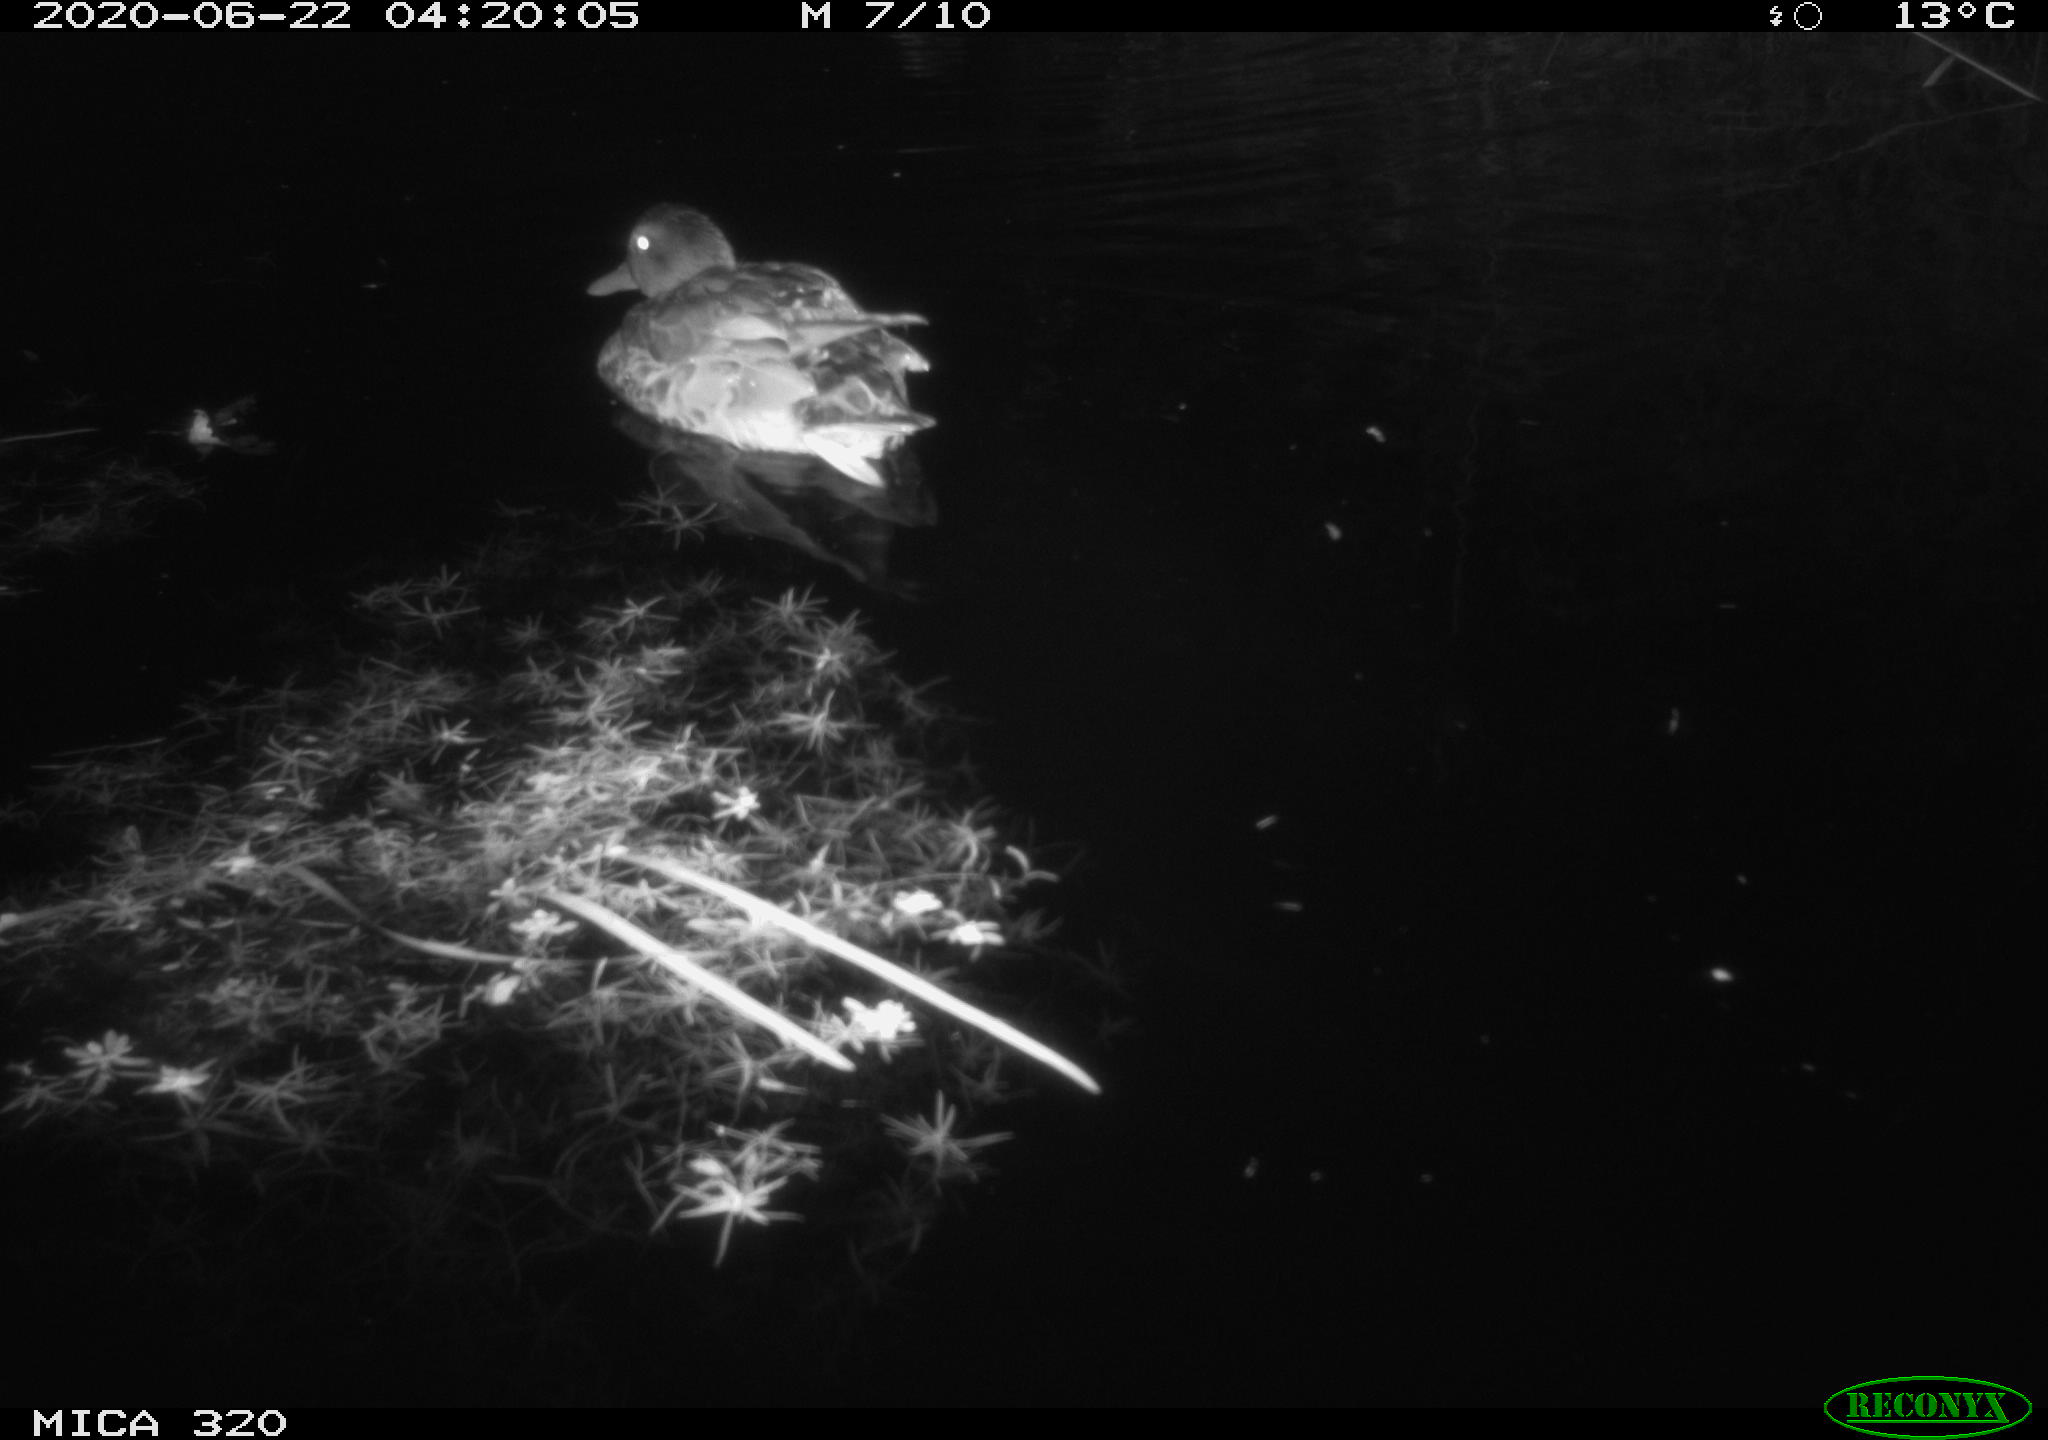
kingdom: Animalia
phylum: Chordata
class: Aves
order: Anseriformes
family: Anatidae
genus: Anas
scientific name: Anas platyrhynchos
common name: Mallard
